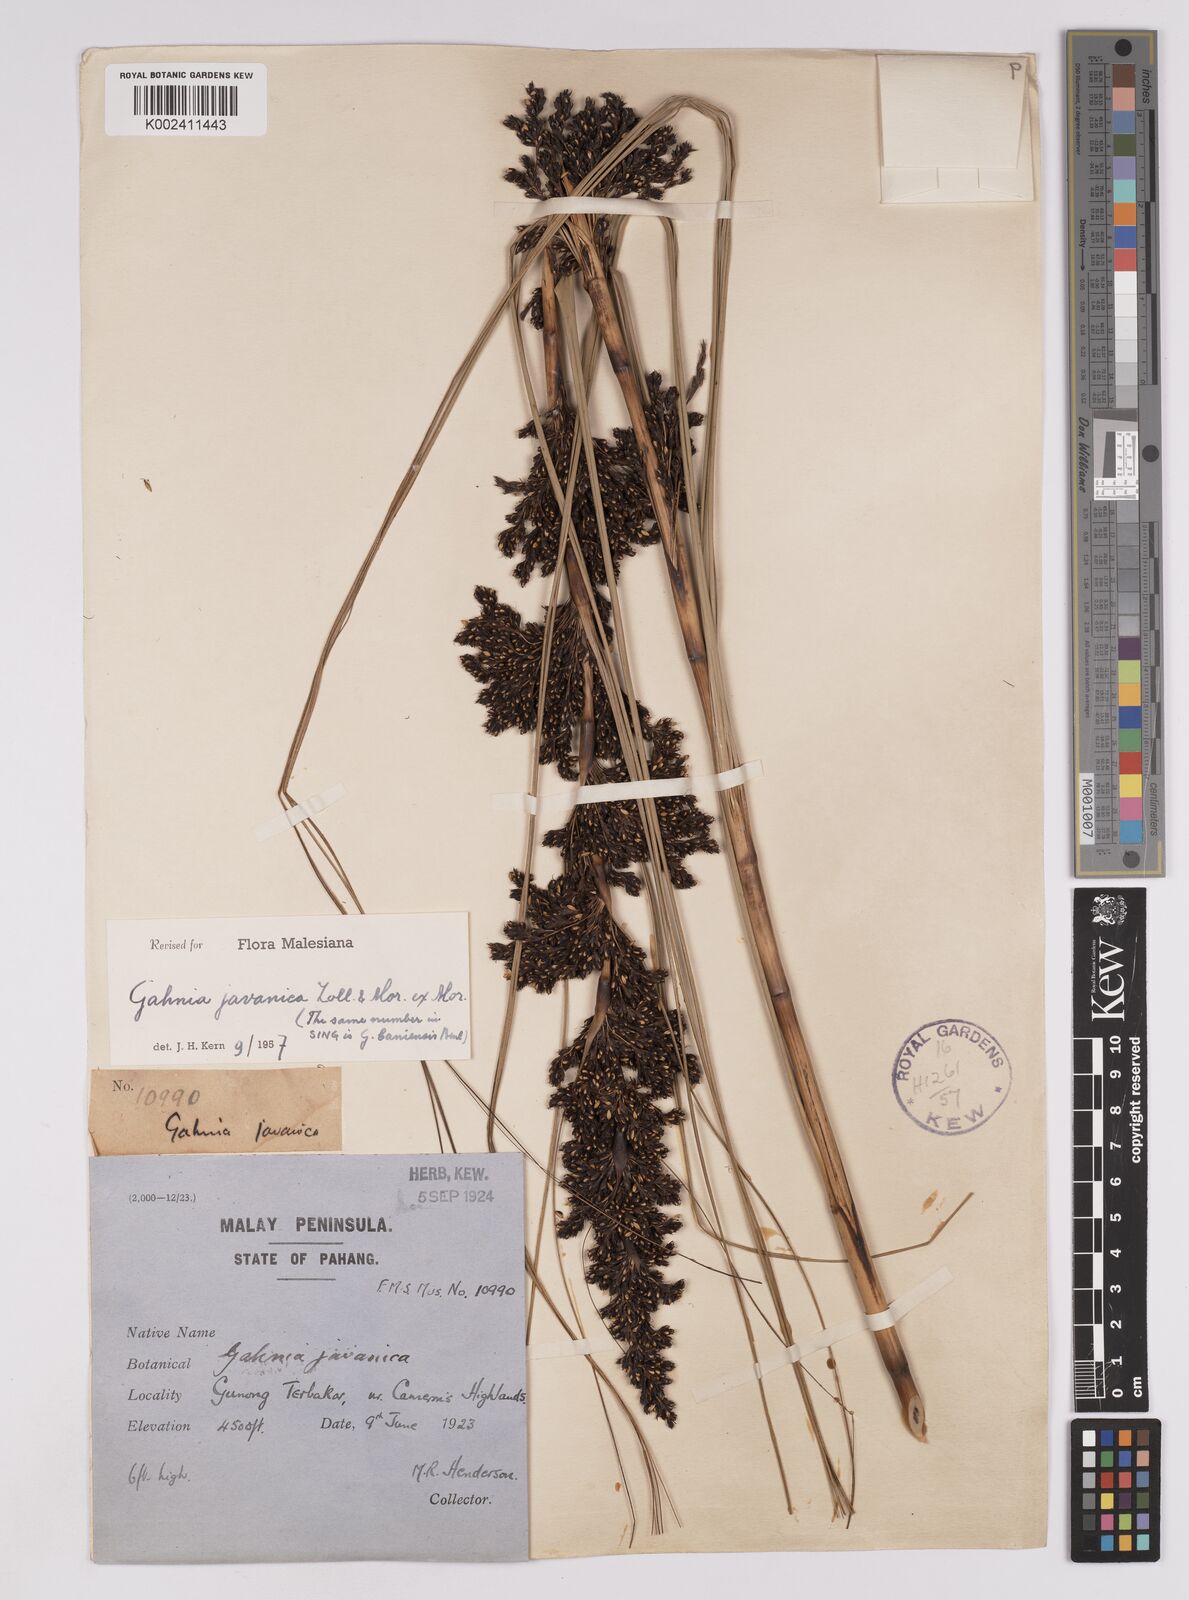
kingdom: Plantae
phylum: Tracheophyta
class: Liliopsida
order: Poales
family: Cyperaceae
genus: Gahnia
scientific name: Gahnia javanica
